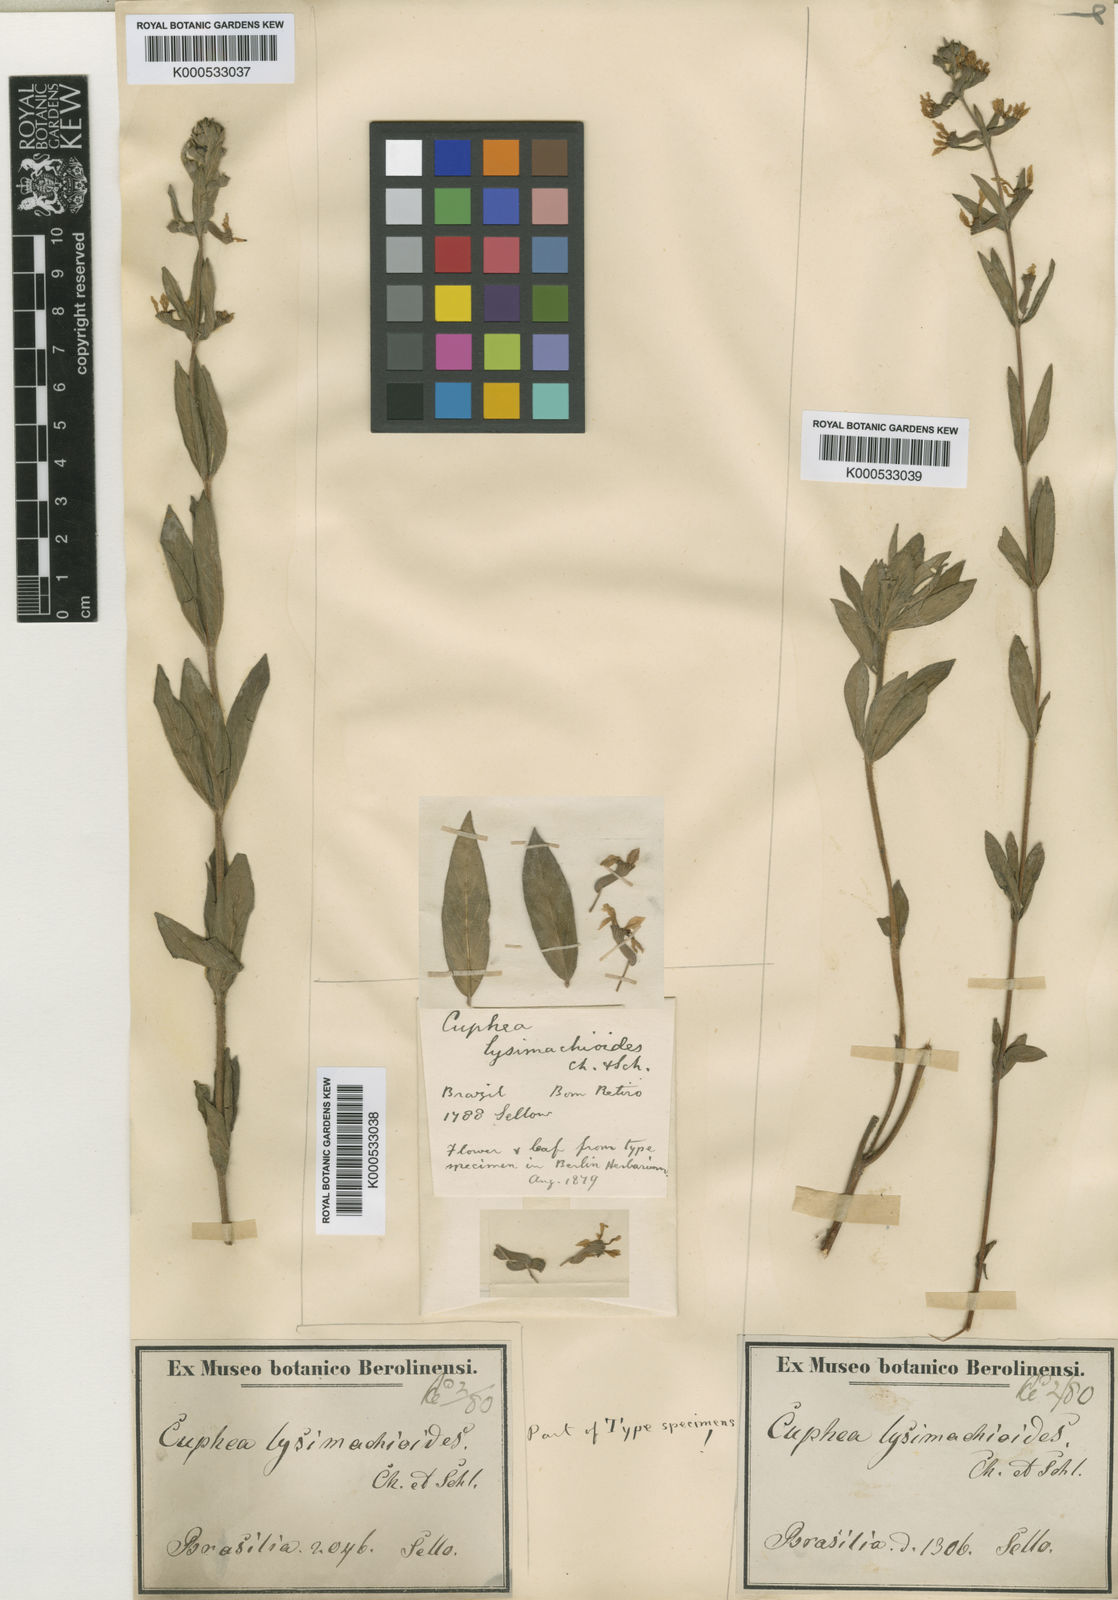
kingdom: Plantae
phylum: Tracheophyta
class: Magnoliopsida
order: Myrtales
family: Lythraceae
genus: Cuphea
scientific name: Cuphea lysimachioides
